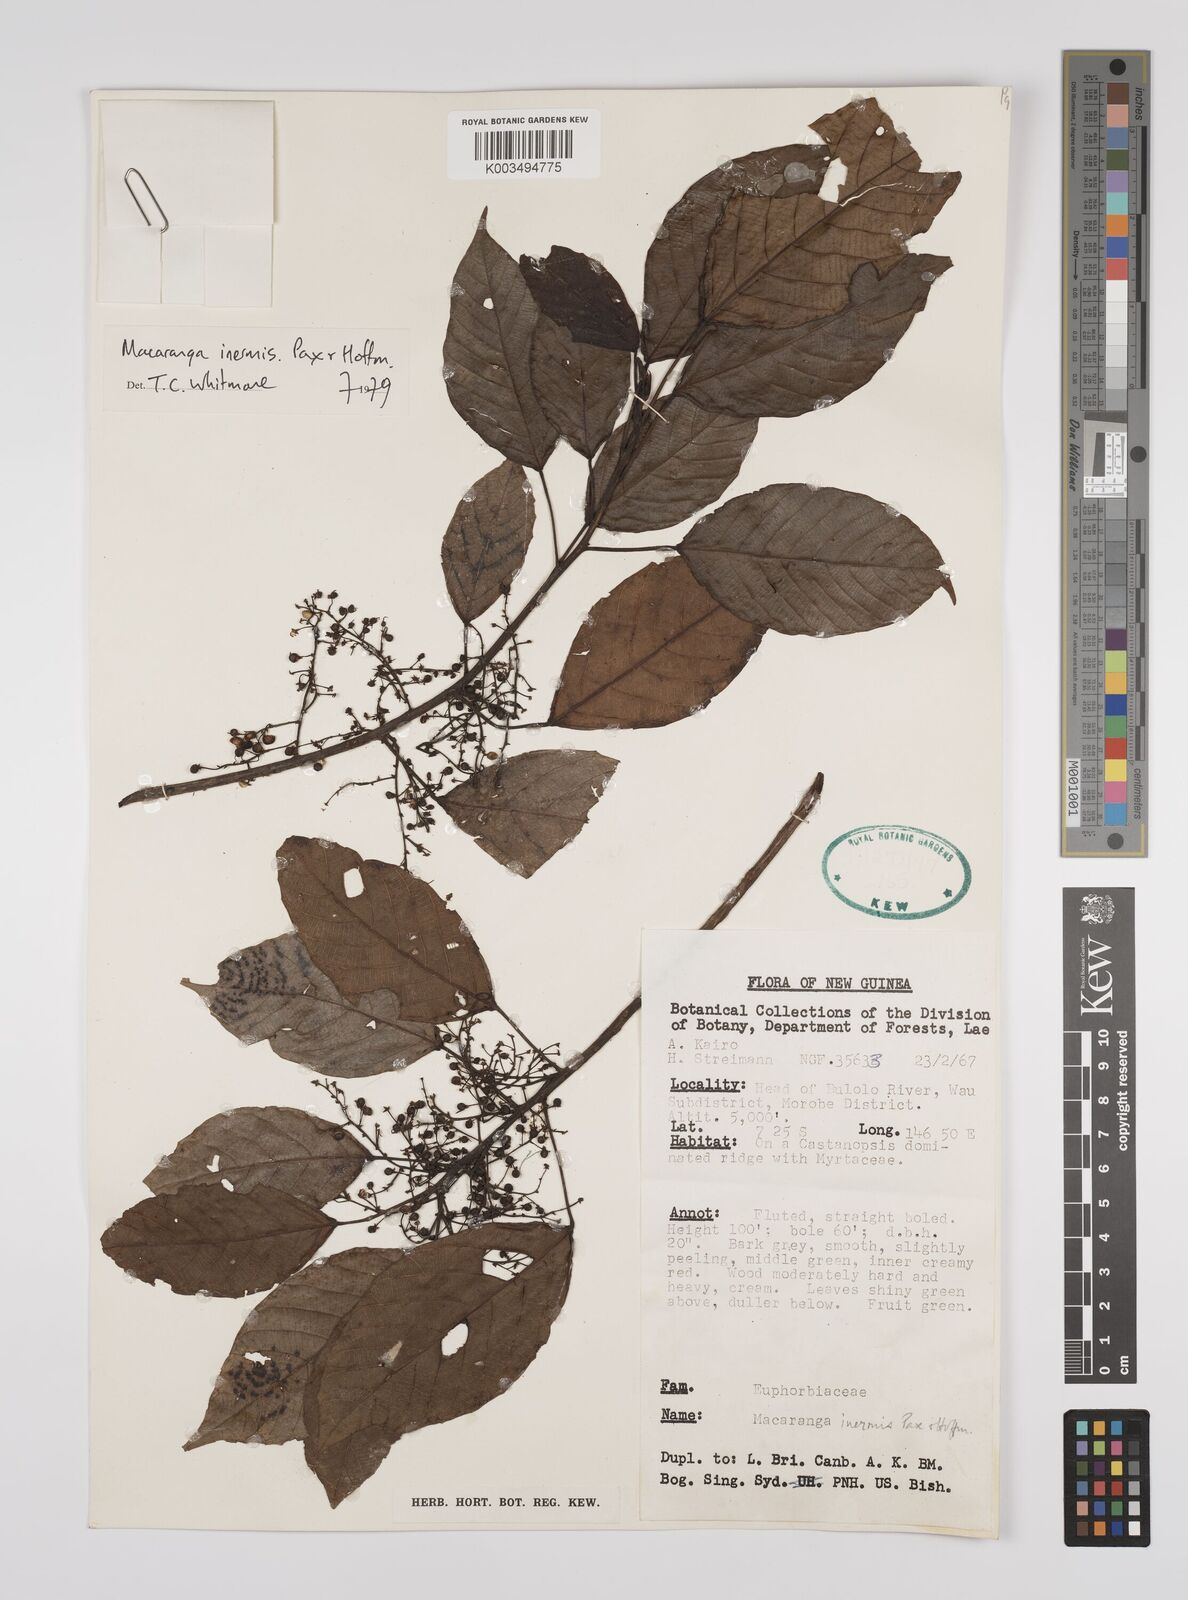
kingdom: Plantae
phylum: Tracheophyta
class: Magnoliopsida
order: Malpighiales
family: Euphorbiaceae
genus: Macaranga
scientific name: Macaranga inermis
